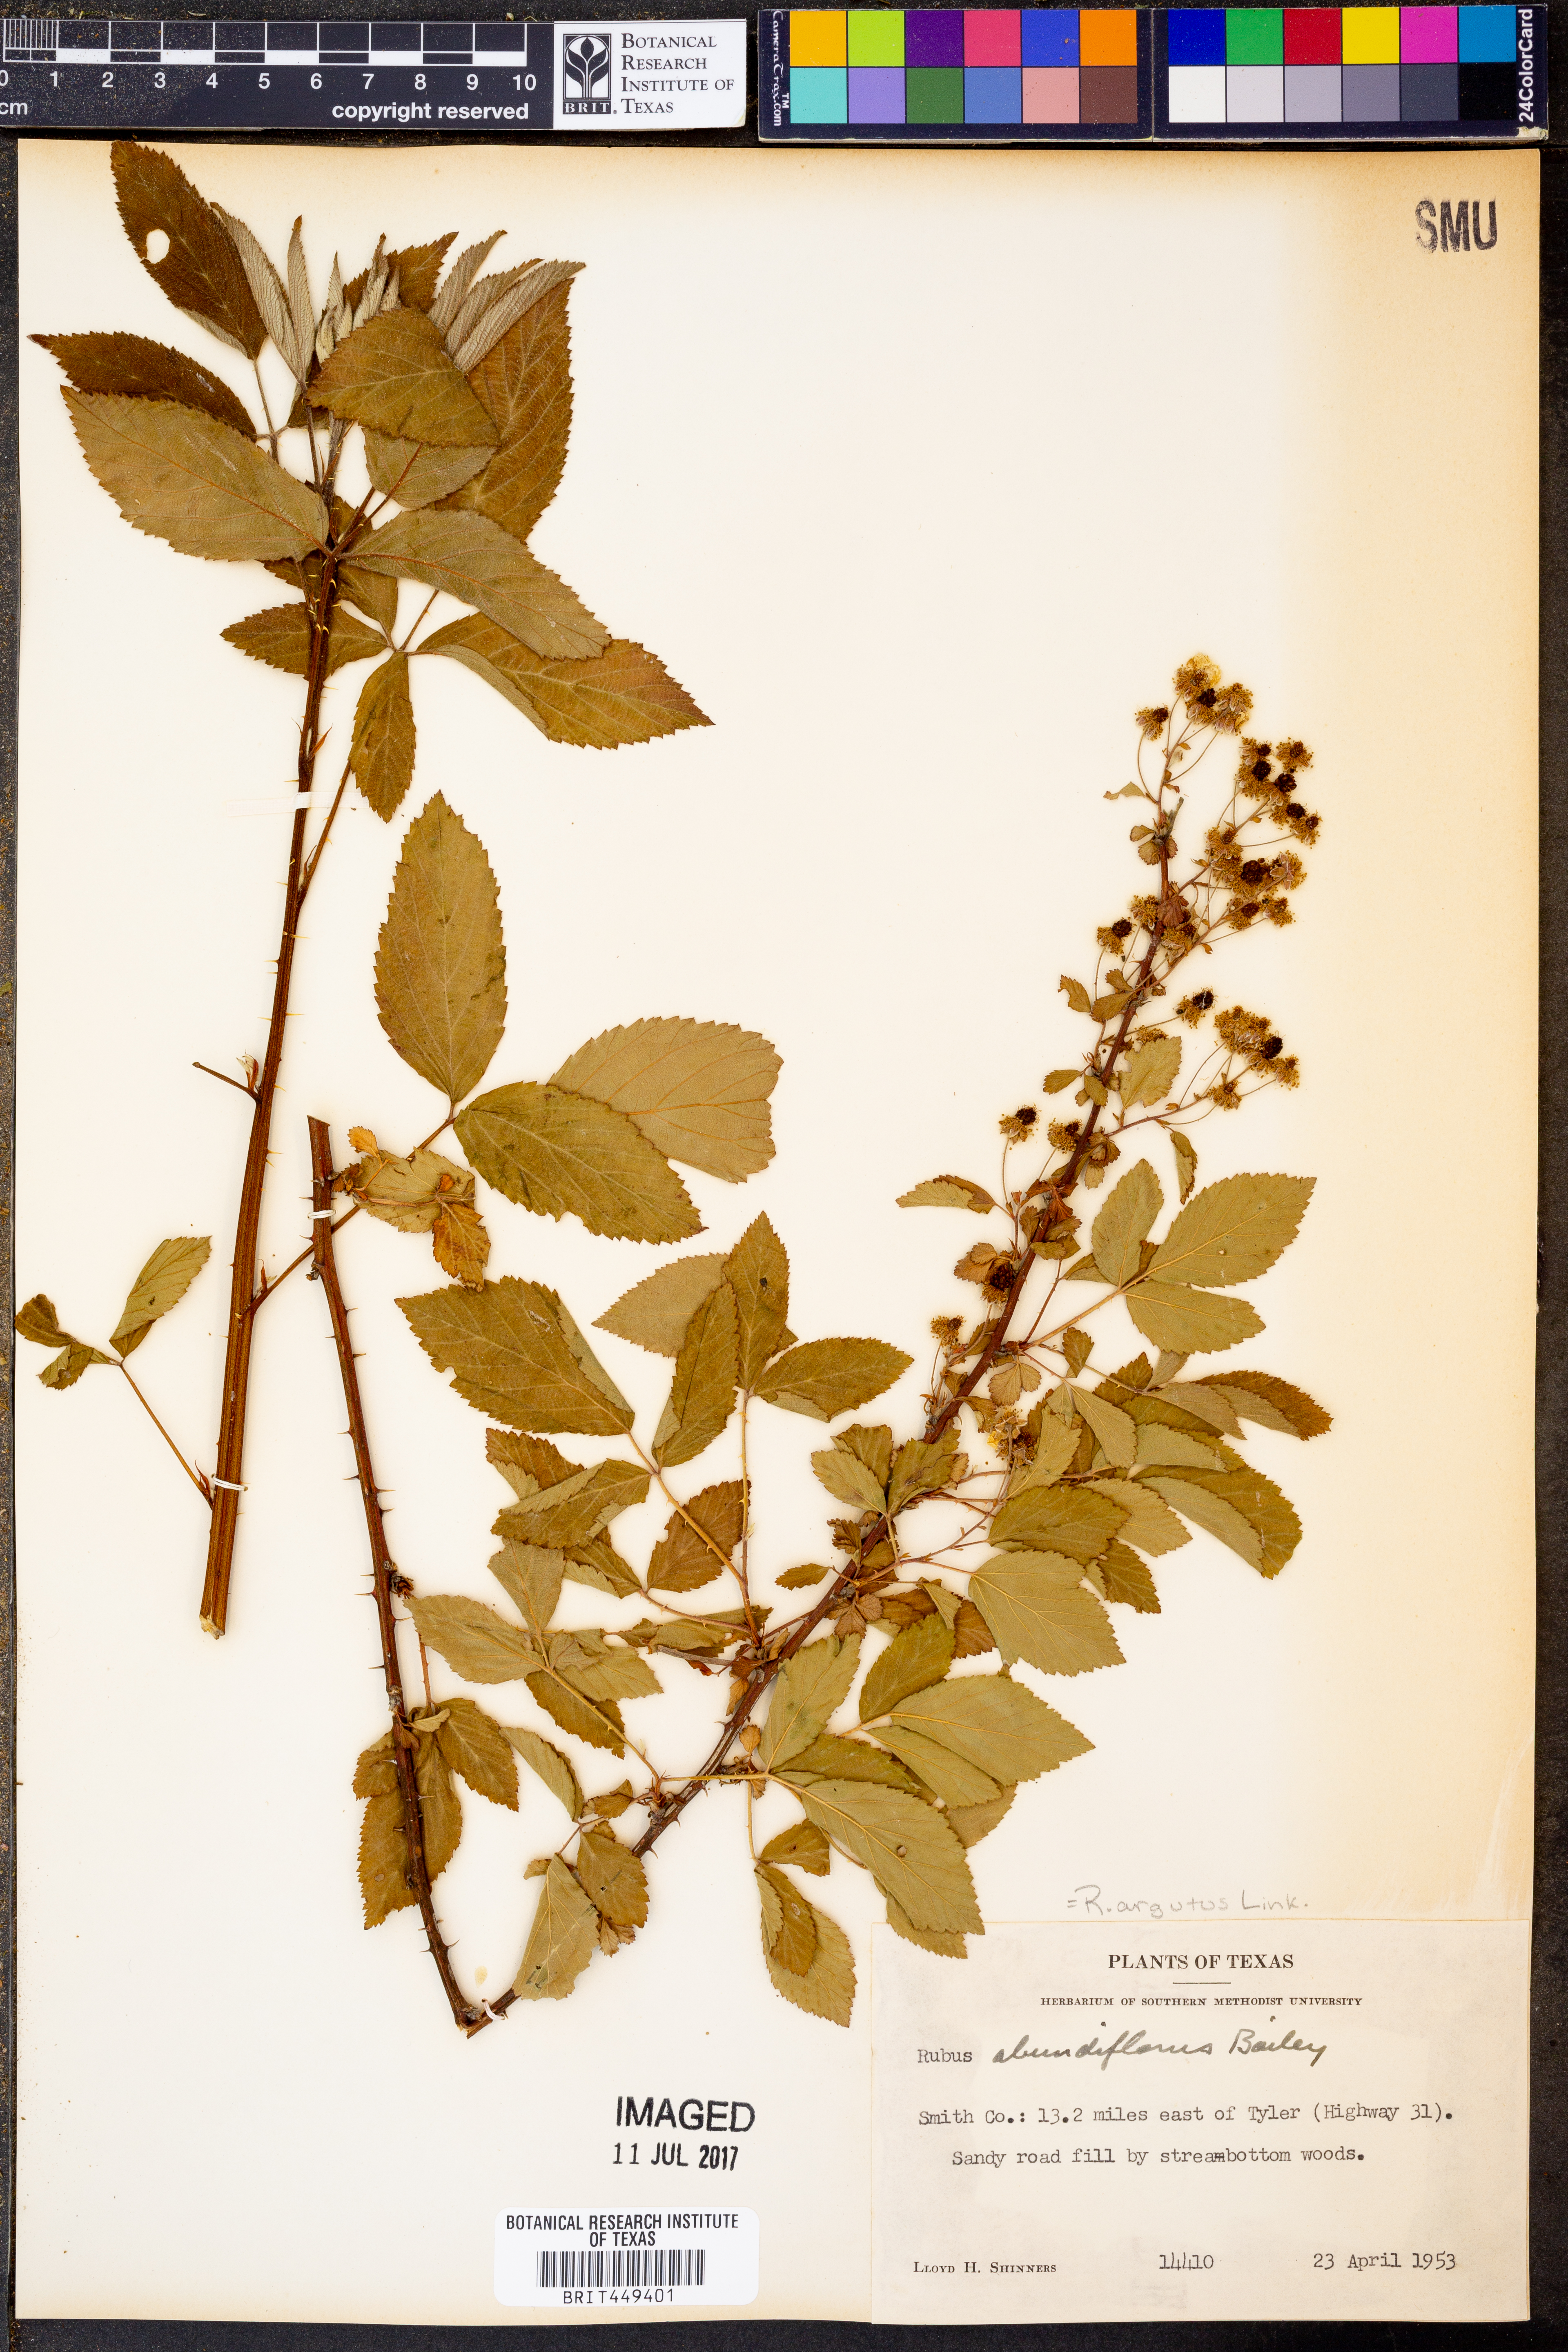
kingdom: Plantae
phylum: Tracheophyta
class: Magnoliopsida
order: Rosales
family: Rosaceae
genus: Rubus
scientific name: Rubus argutus
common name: Sawtooth blackberry
